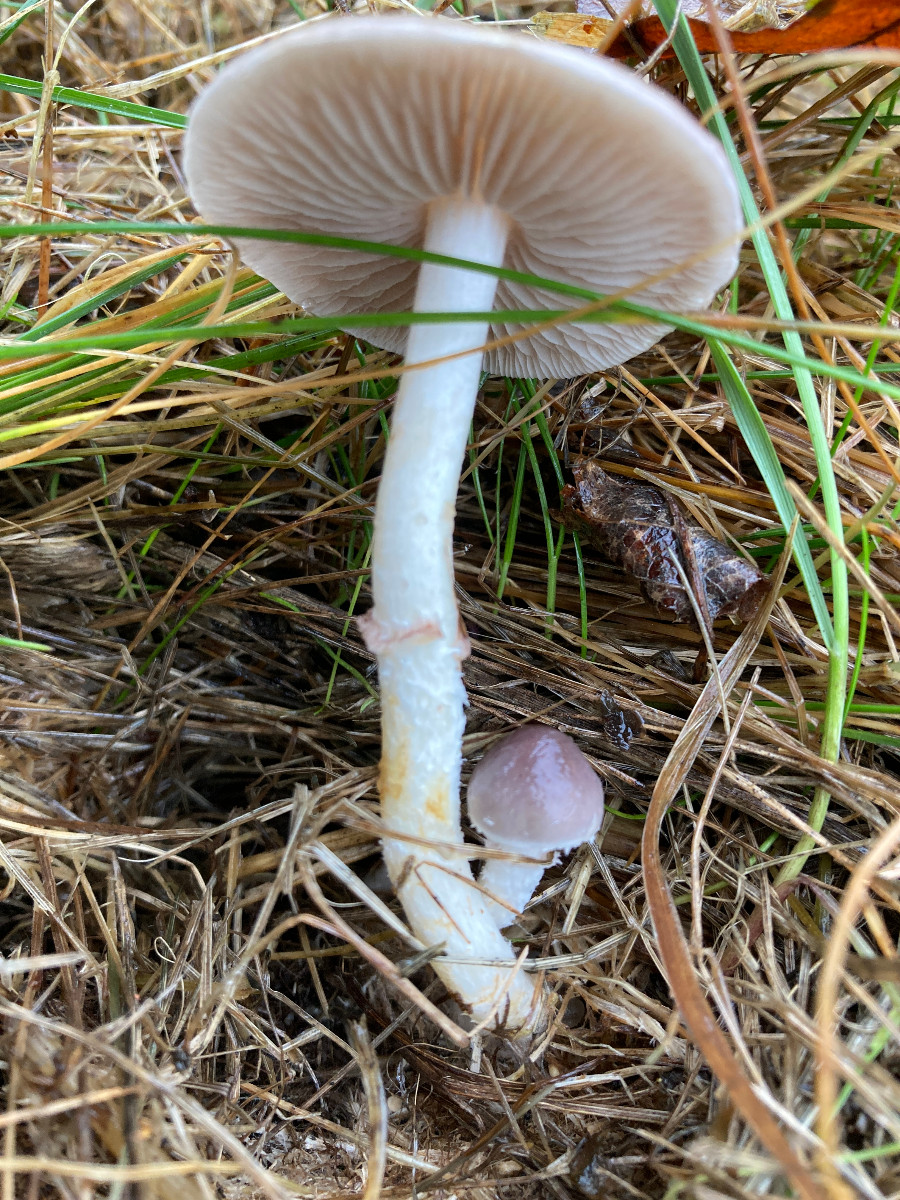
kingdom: Fungi
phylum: Basidiomycota
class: Agaricomycetes
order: Agaricales
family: Strophariaceae
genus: Stropharia
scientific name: Stropharia inuncta
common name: lillabrun bredblad
